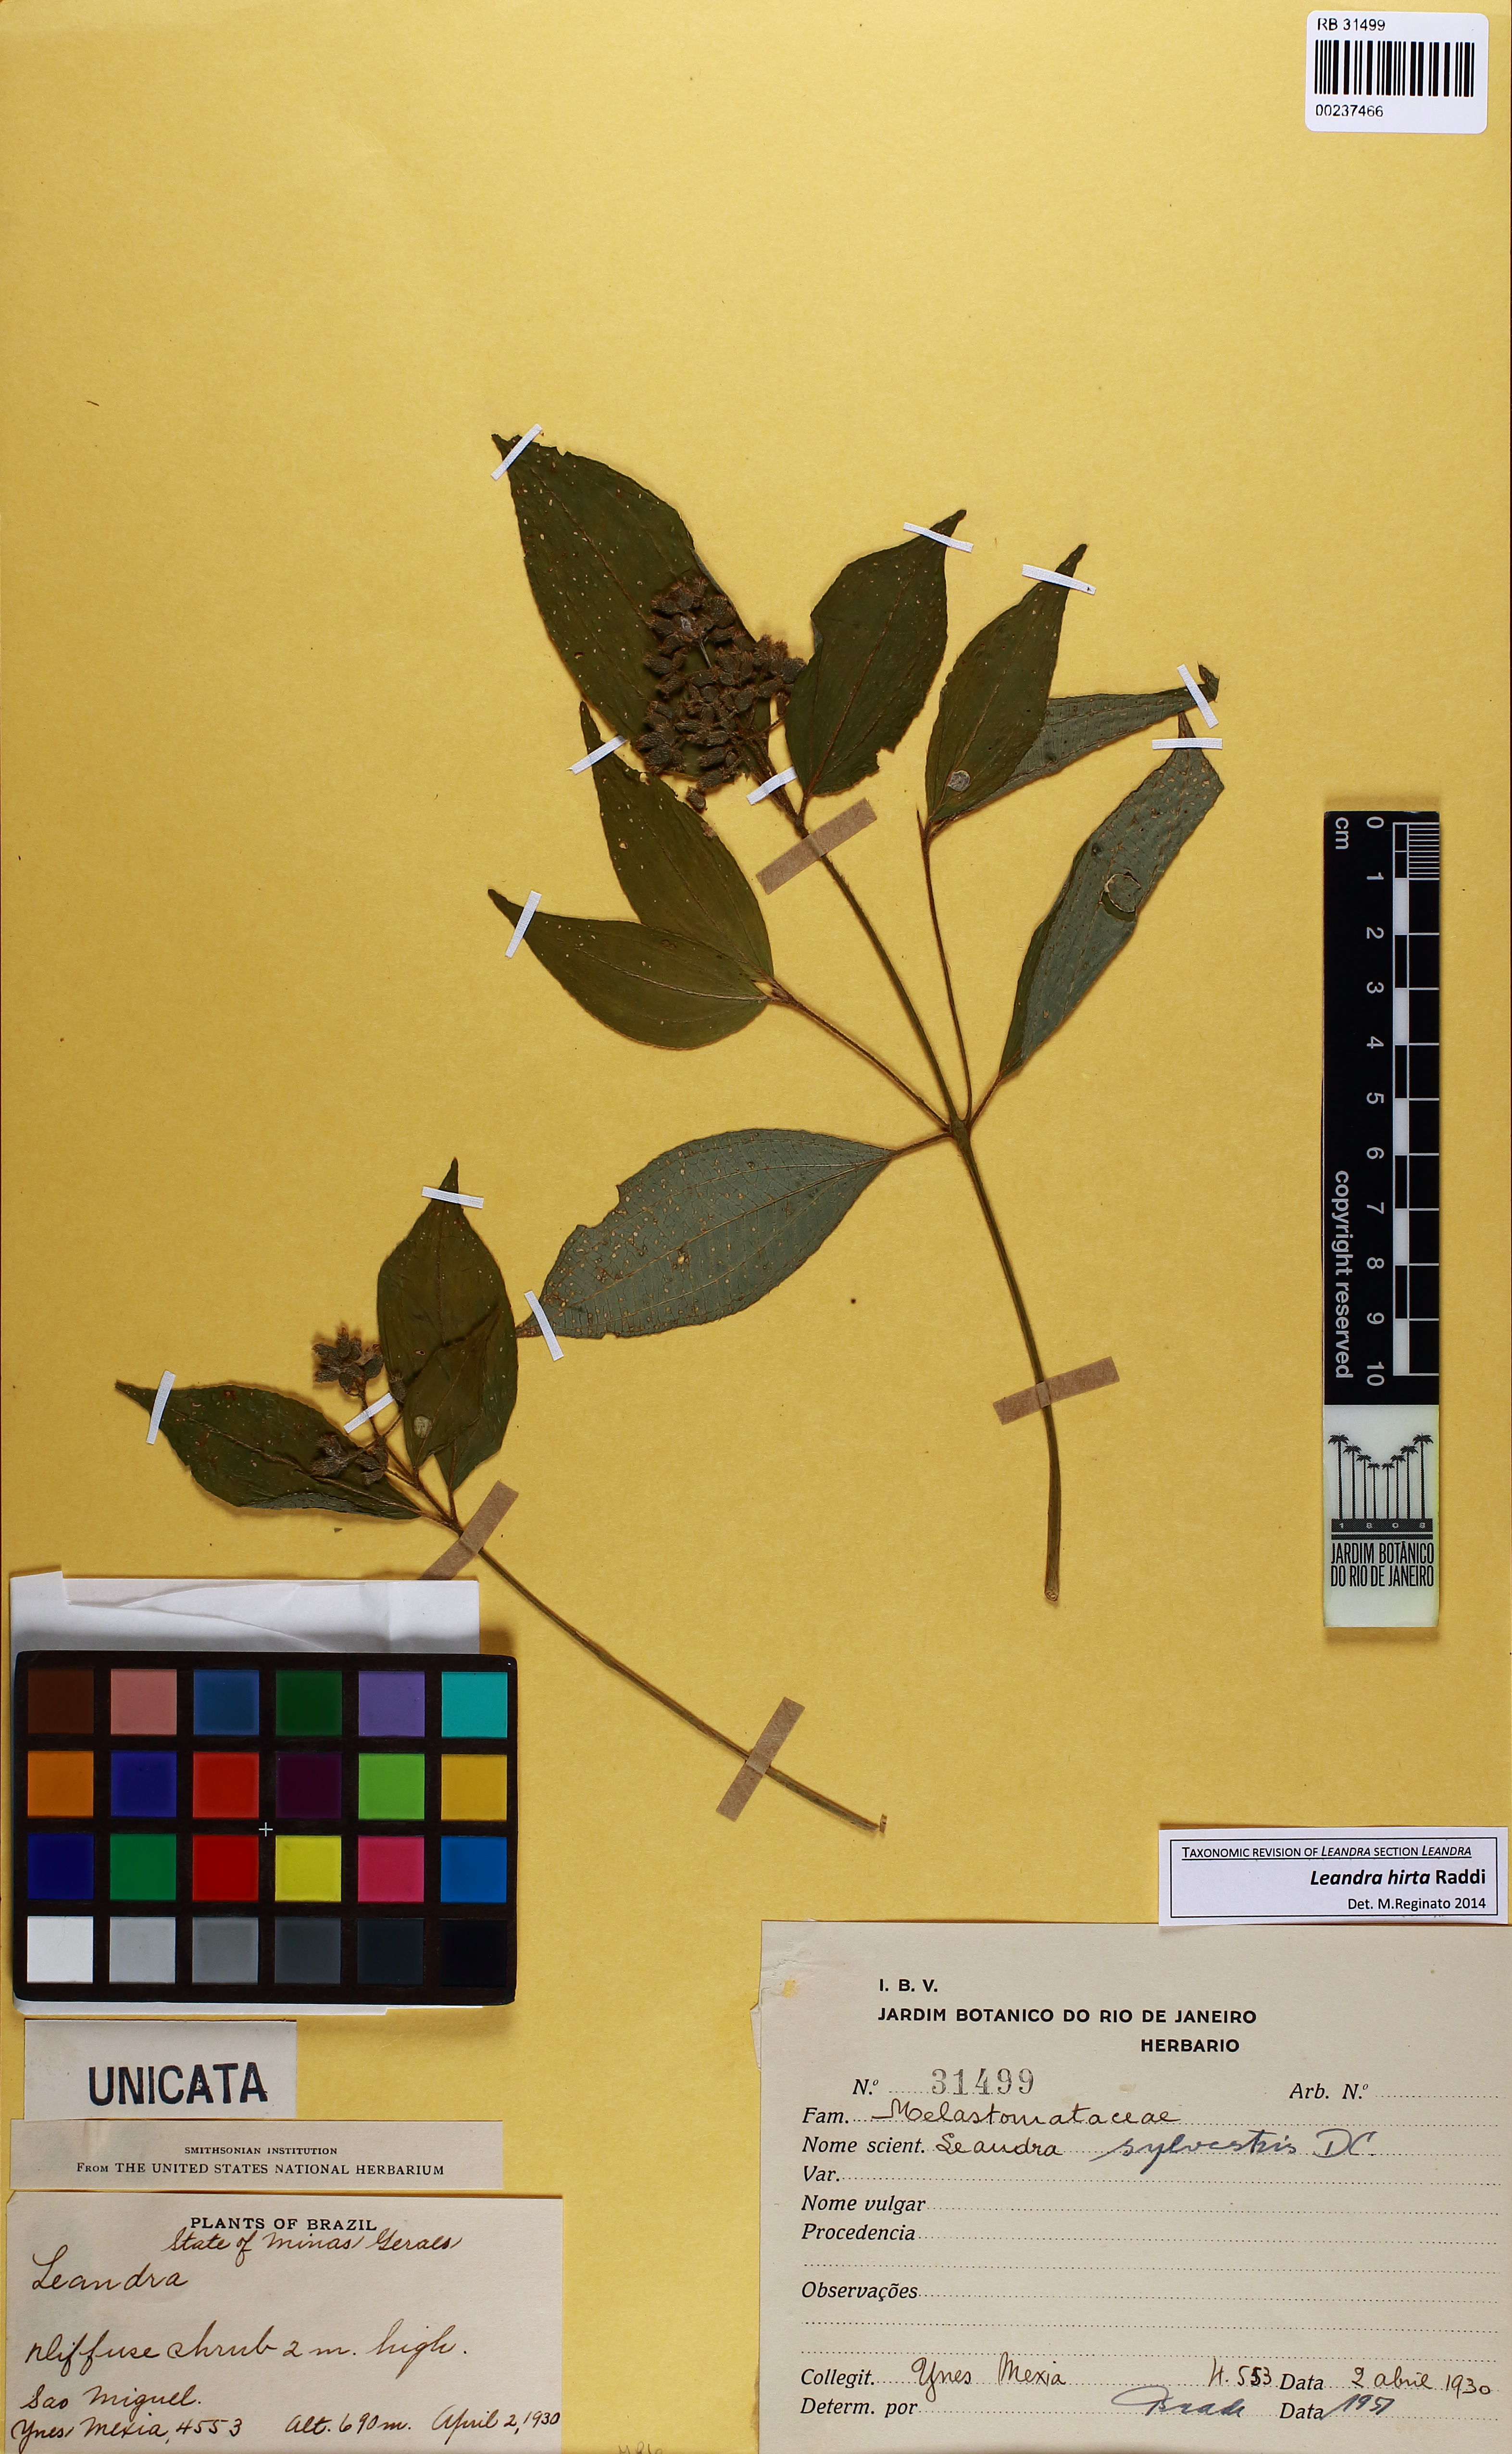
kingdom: Plantae
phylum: Tracheophyta
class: Magnoliopsida
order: Myrtales
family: Melastomataceae
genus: Miconia
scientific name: Miconia dubia
